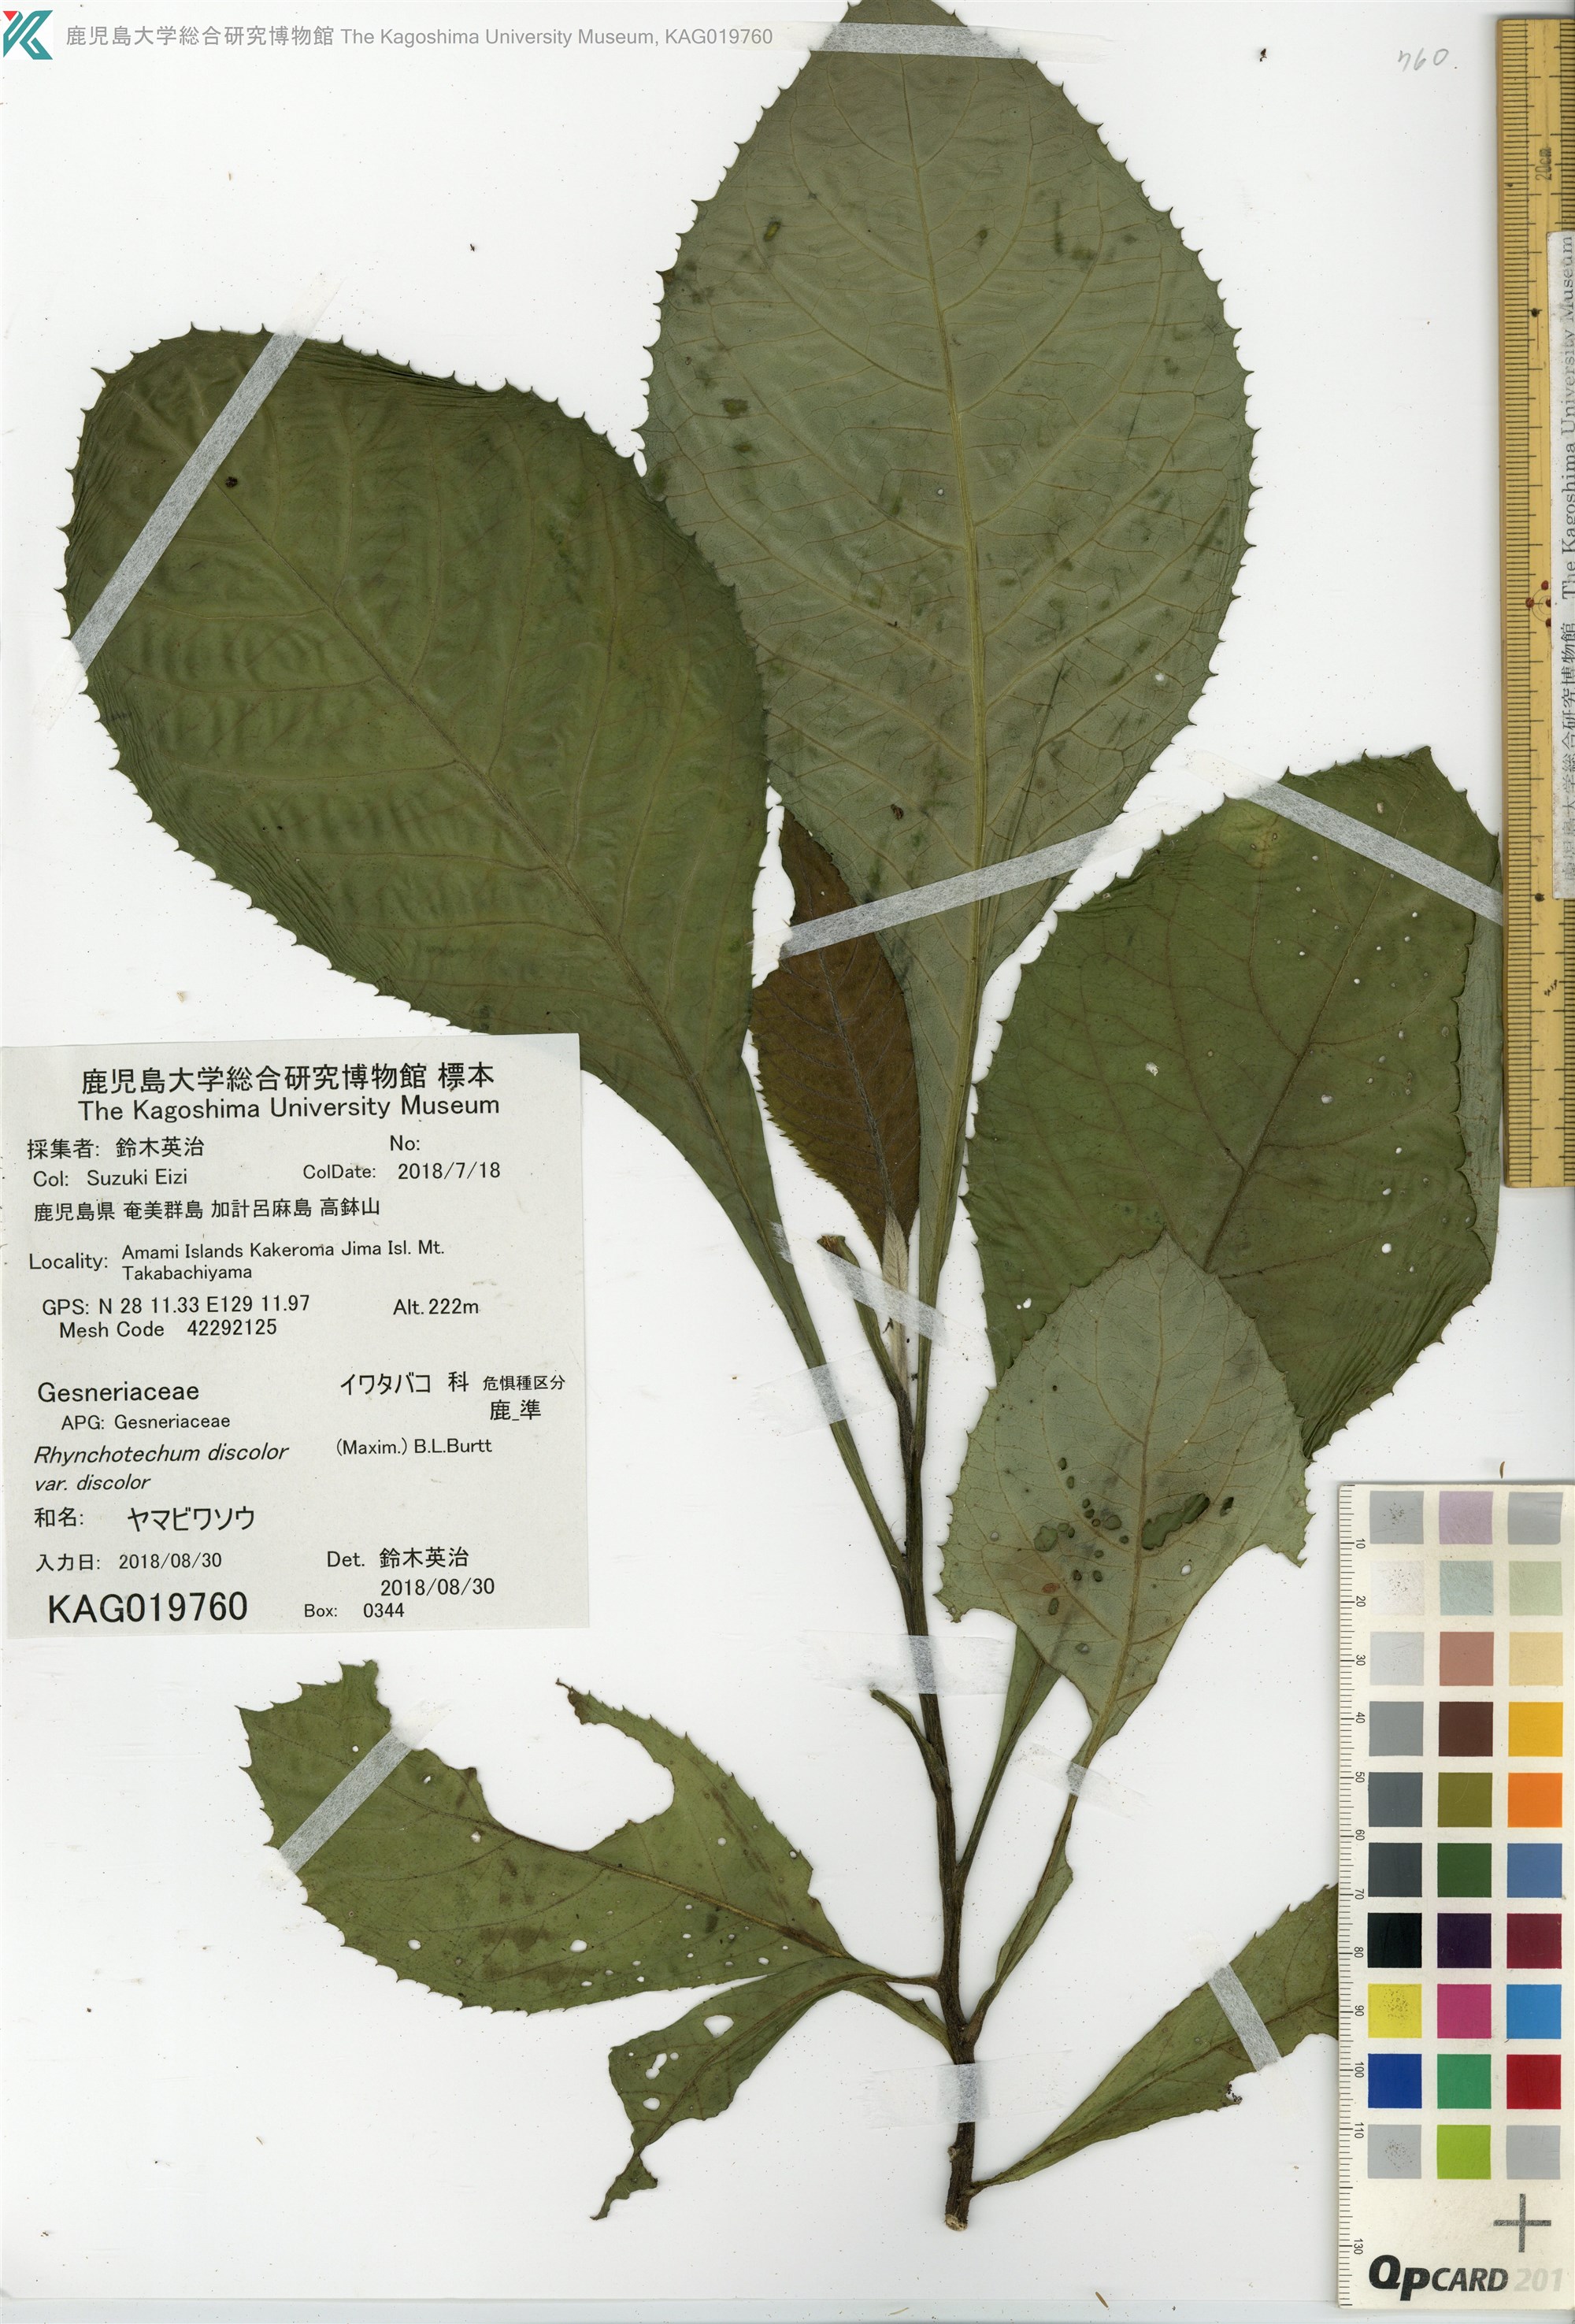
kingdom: Plantae
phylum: Tracheophyta
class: Magnoliopsida
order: Asterales
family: Asteraceae
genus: Blumea
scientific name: Blumea conspicua
